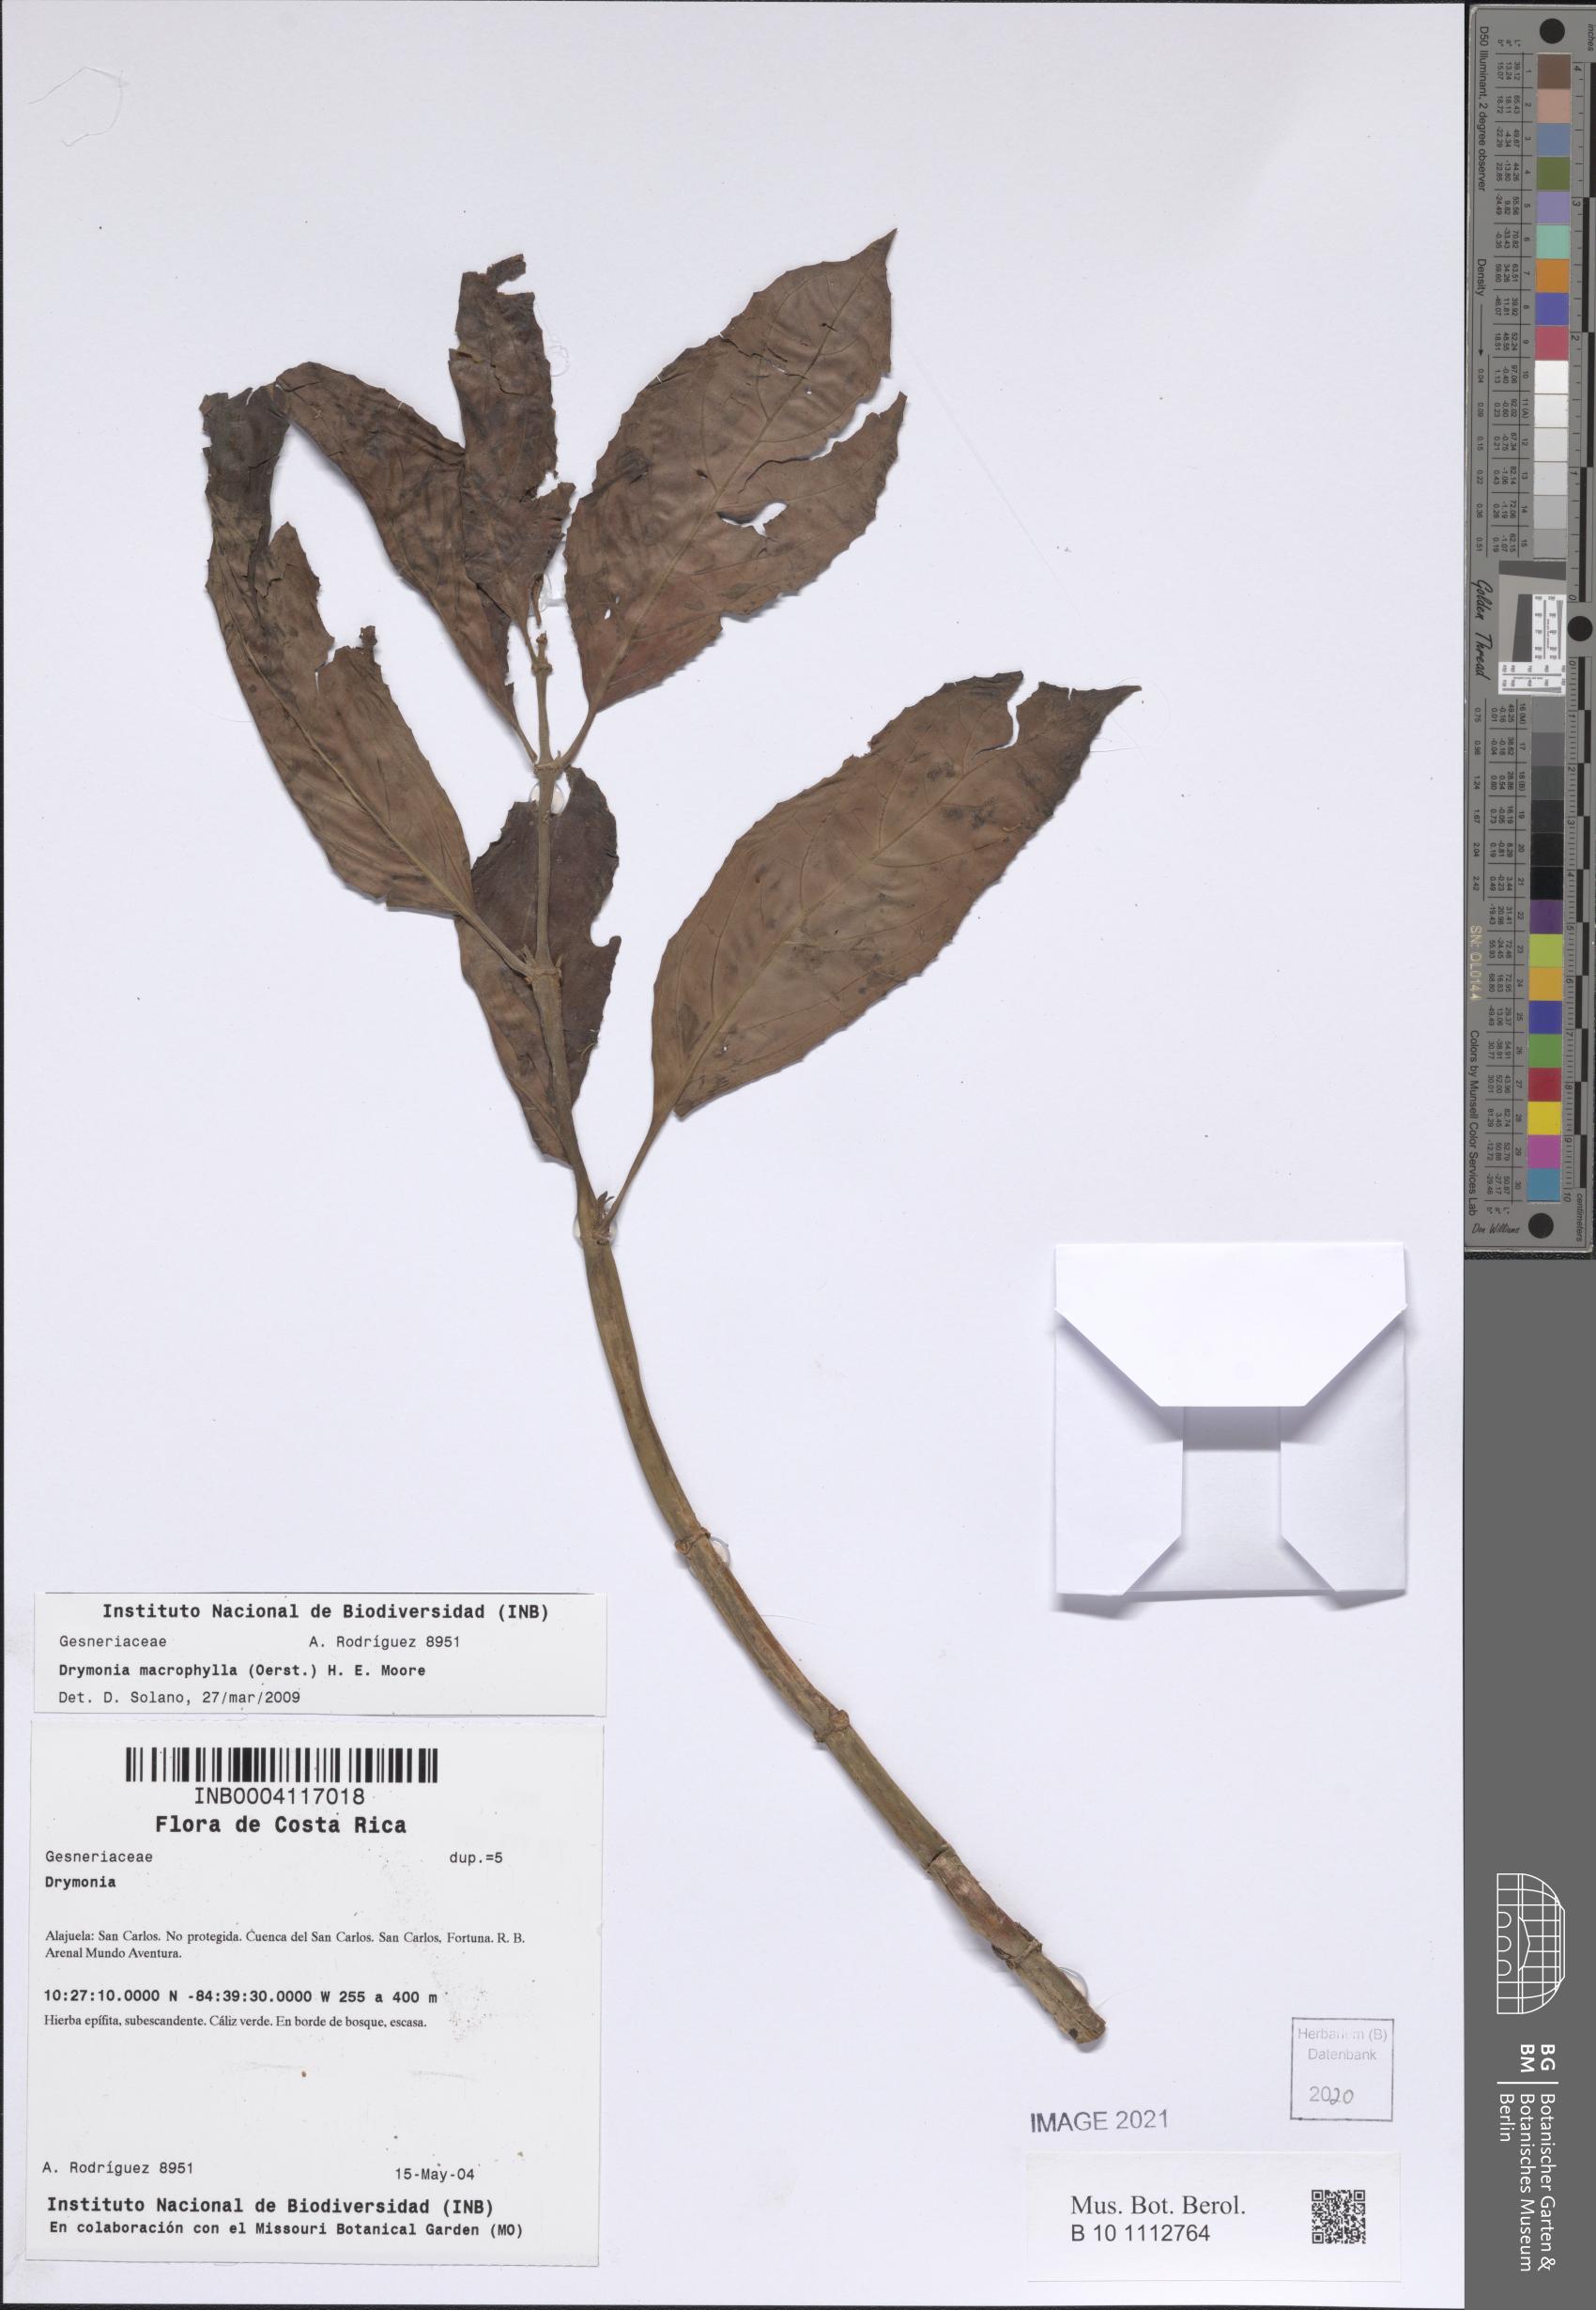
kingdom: Plantae
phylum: Tracheophyta
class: Magnoliopsida
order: Lamiales
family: Gesneriaceae
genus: Drymonia
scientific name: Drymonia macrophylla
